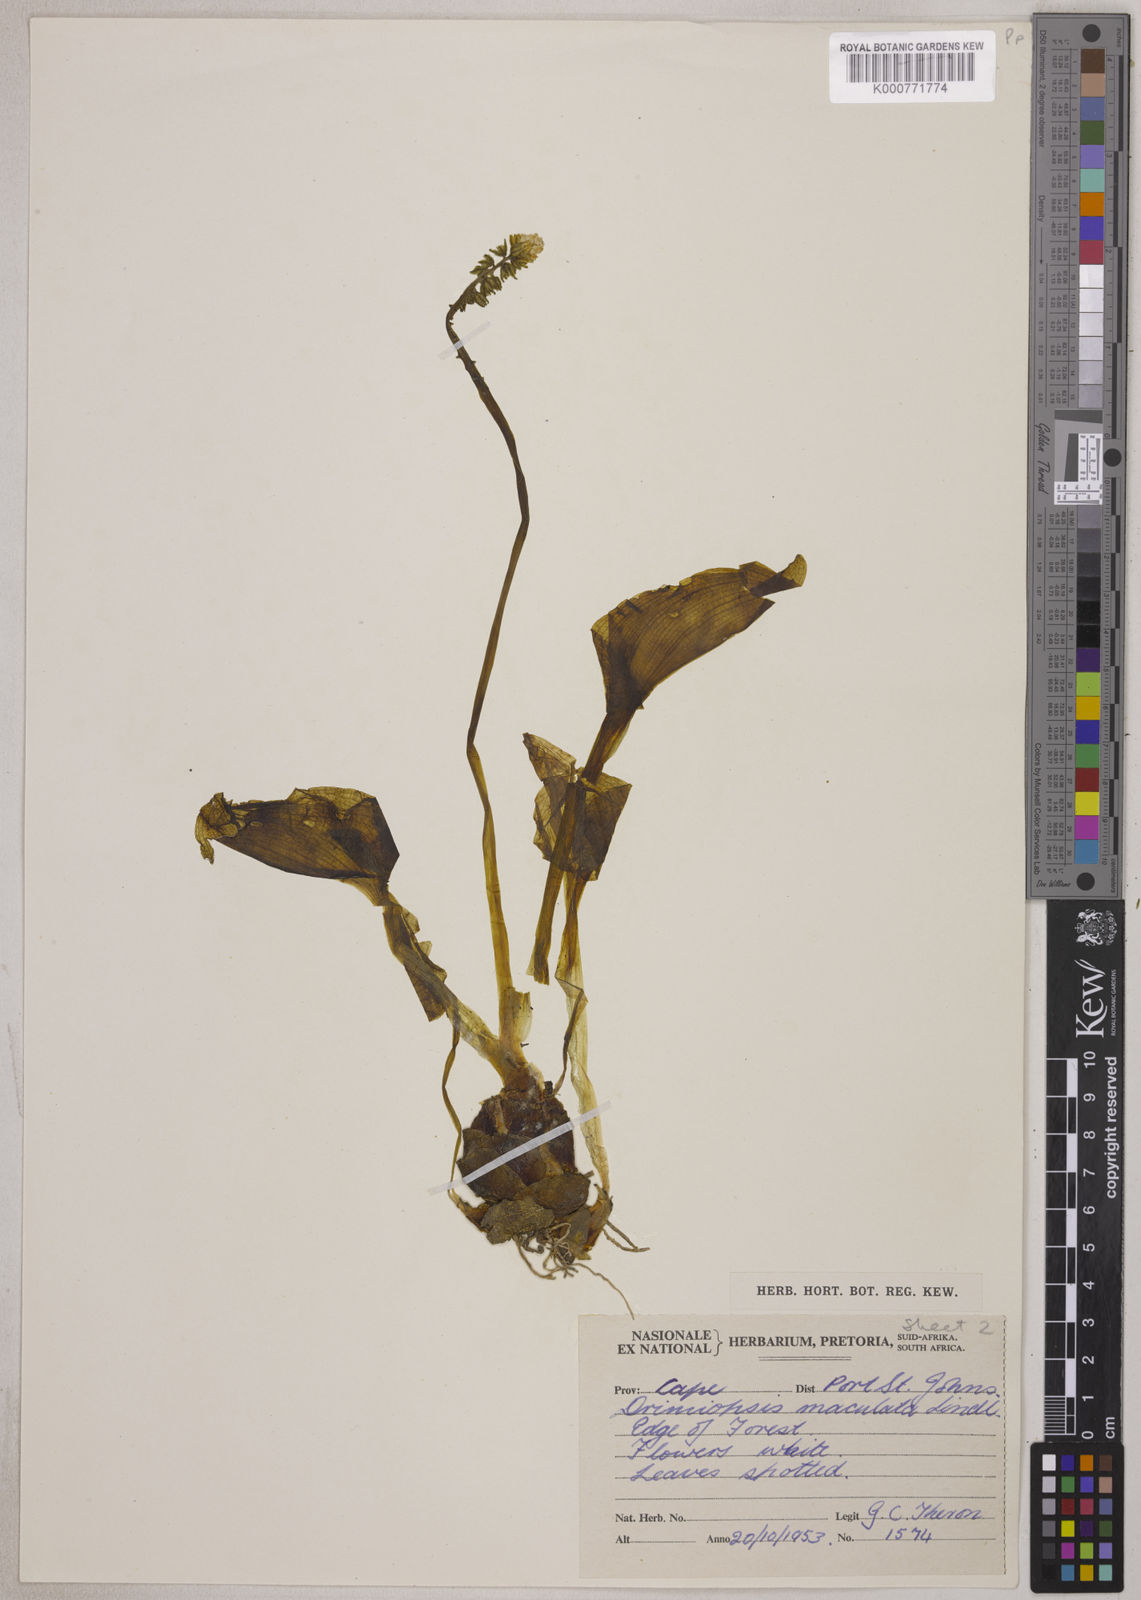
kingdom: Plantae
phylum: Tracheophyta
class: Liliopsida
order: Asparagales
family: Asparagaceae
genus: Drimiopsis
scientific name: Drimiopsis maculata
